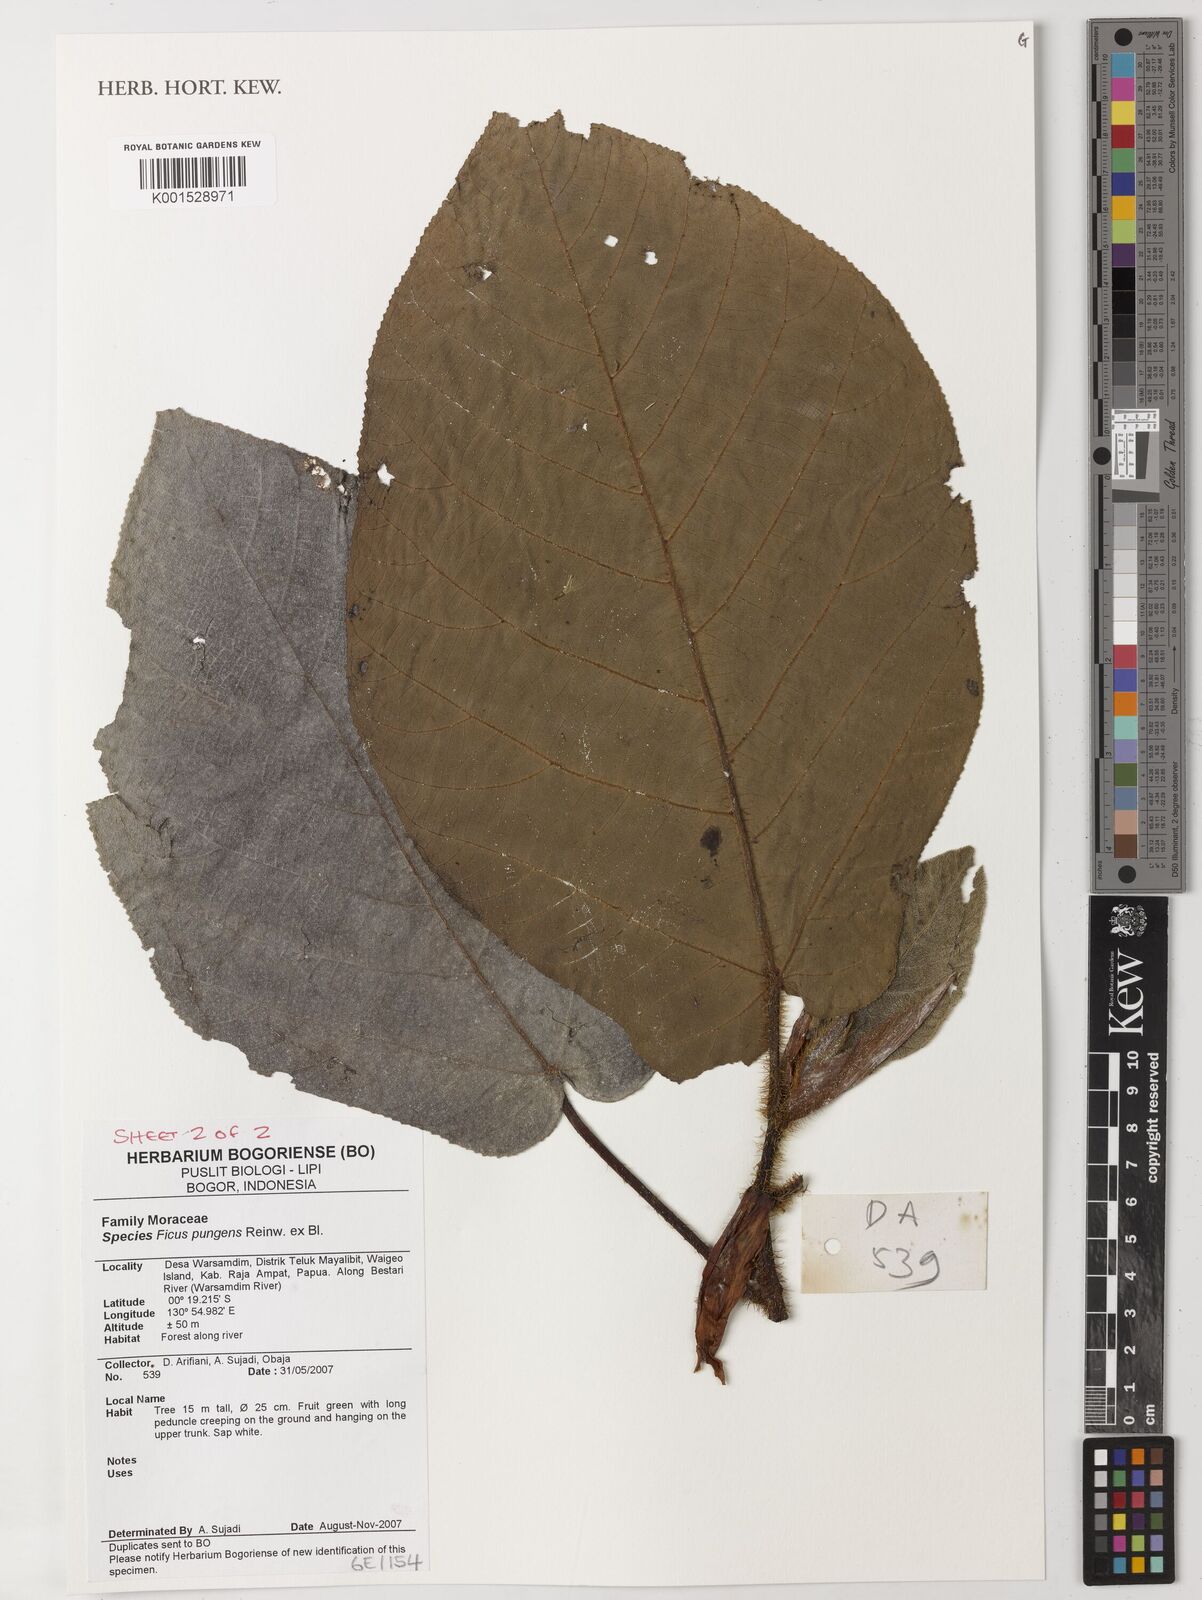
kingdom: Plantae
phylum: Tracheophyta
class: Magnoliopsida
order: Rosales
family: Moraceae
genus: Ficus
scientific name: Ficus pungens
